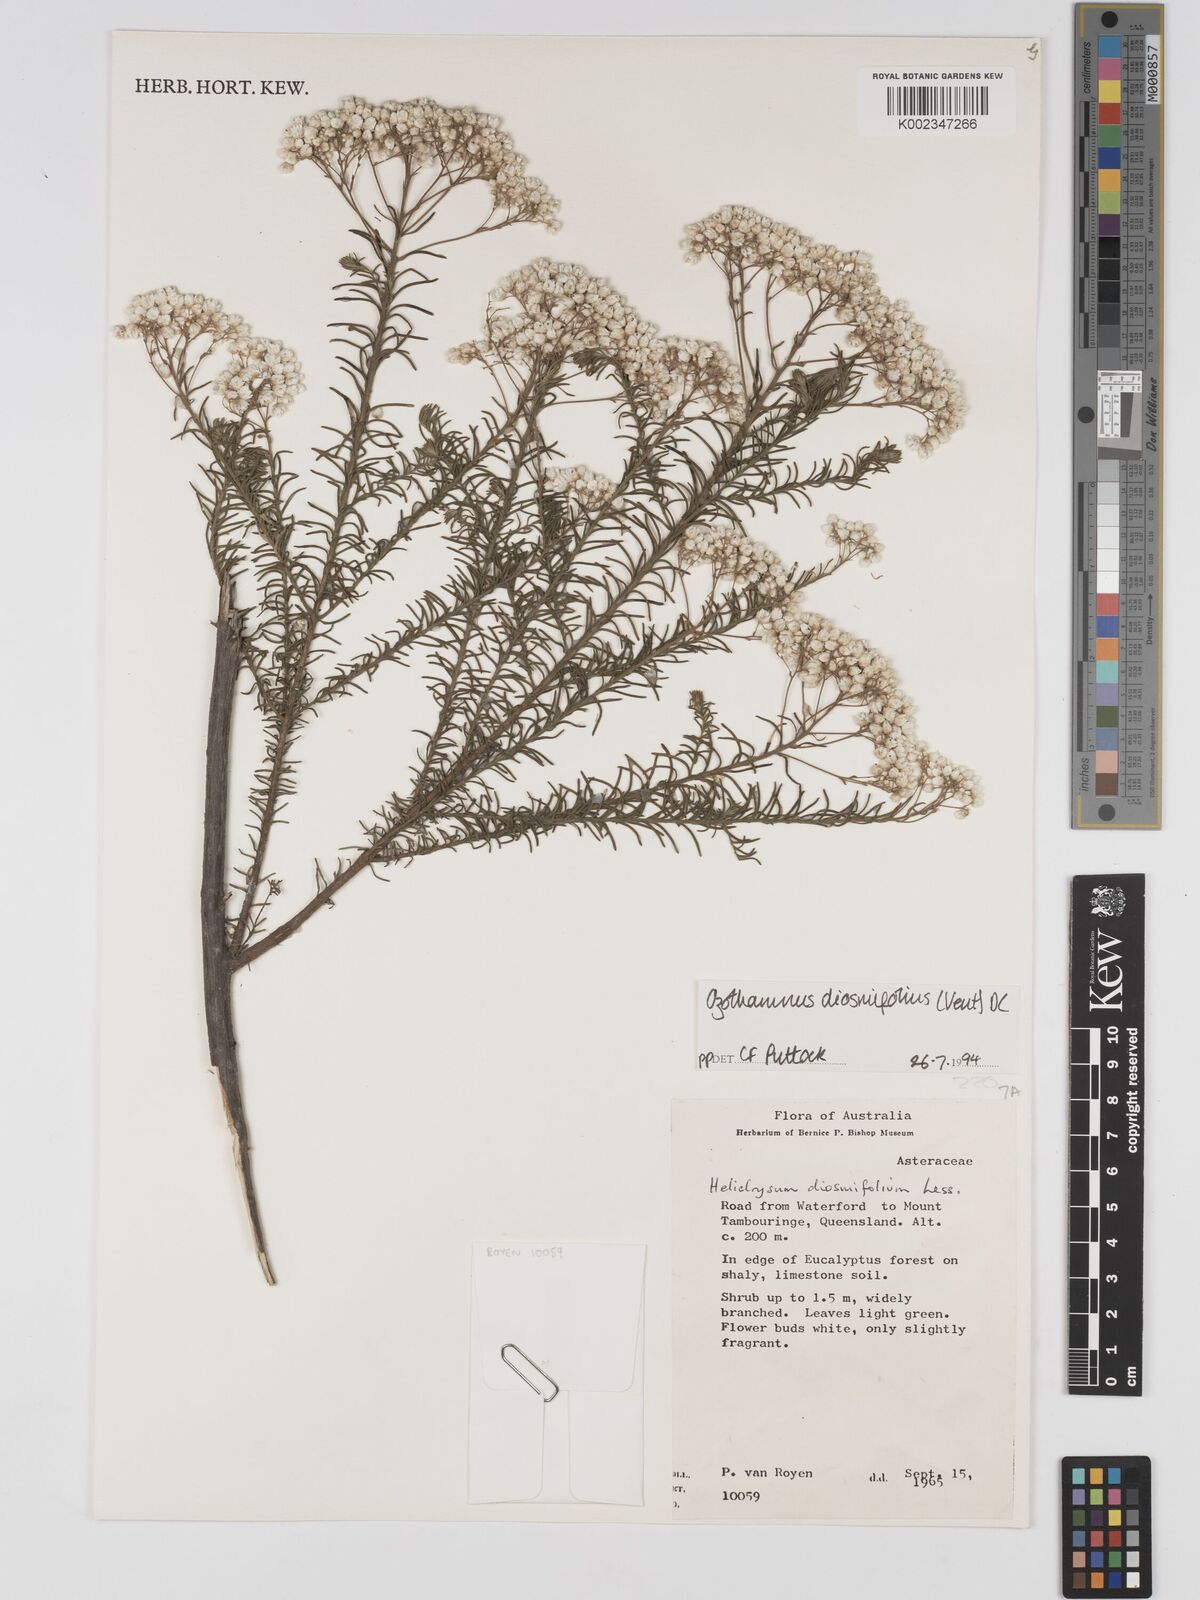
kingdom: Plantae
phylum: Tracheophyta
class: Magnoliopsida
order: Asterales
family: Asteraceae
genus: Ozothamnus
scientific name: Ozothamnus diosmifolius
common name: White-dogwood
